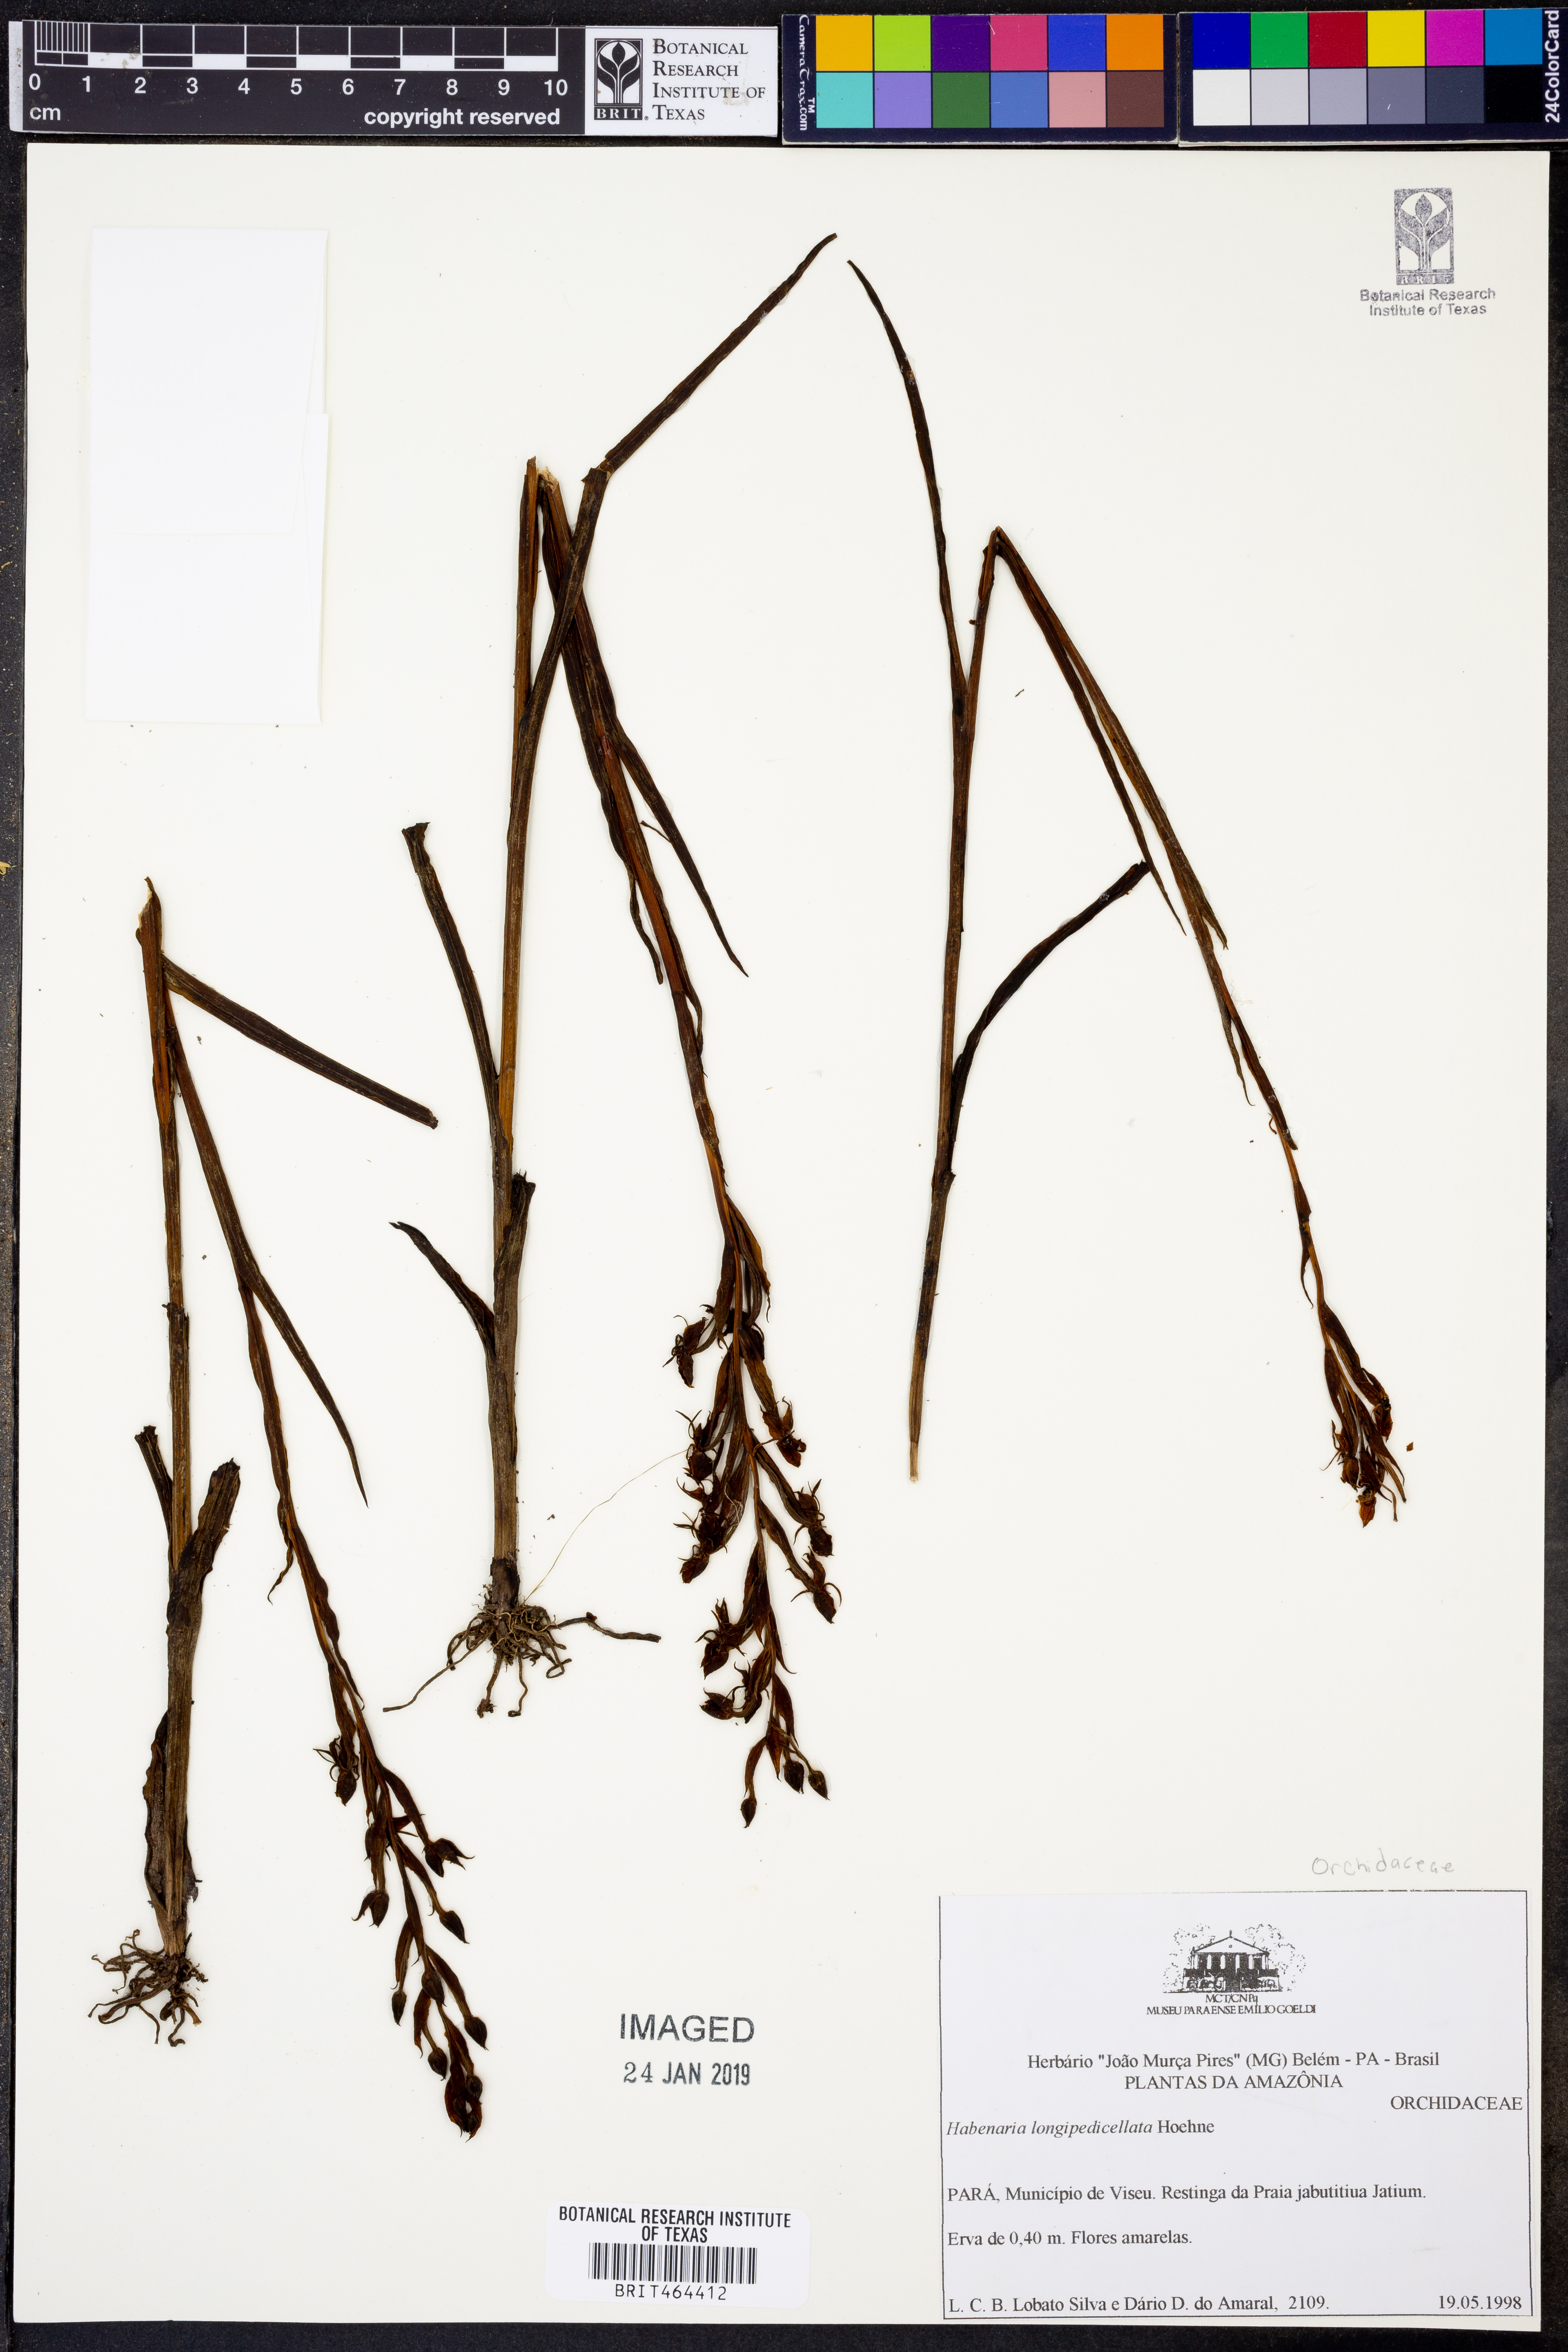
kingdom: Plantae
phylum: Tracheophyta
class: Liliopsida
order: Asparagales
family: Orchidaceae
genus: Habenaria
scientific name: Habenaria longipedicellata
